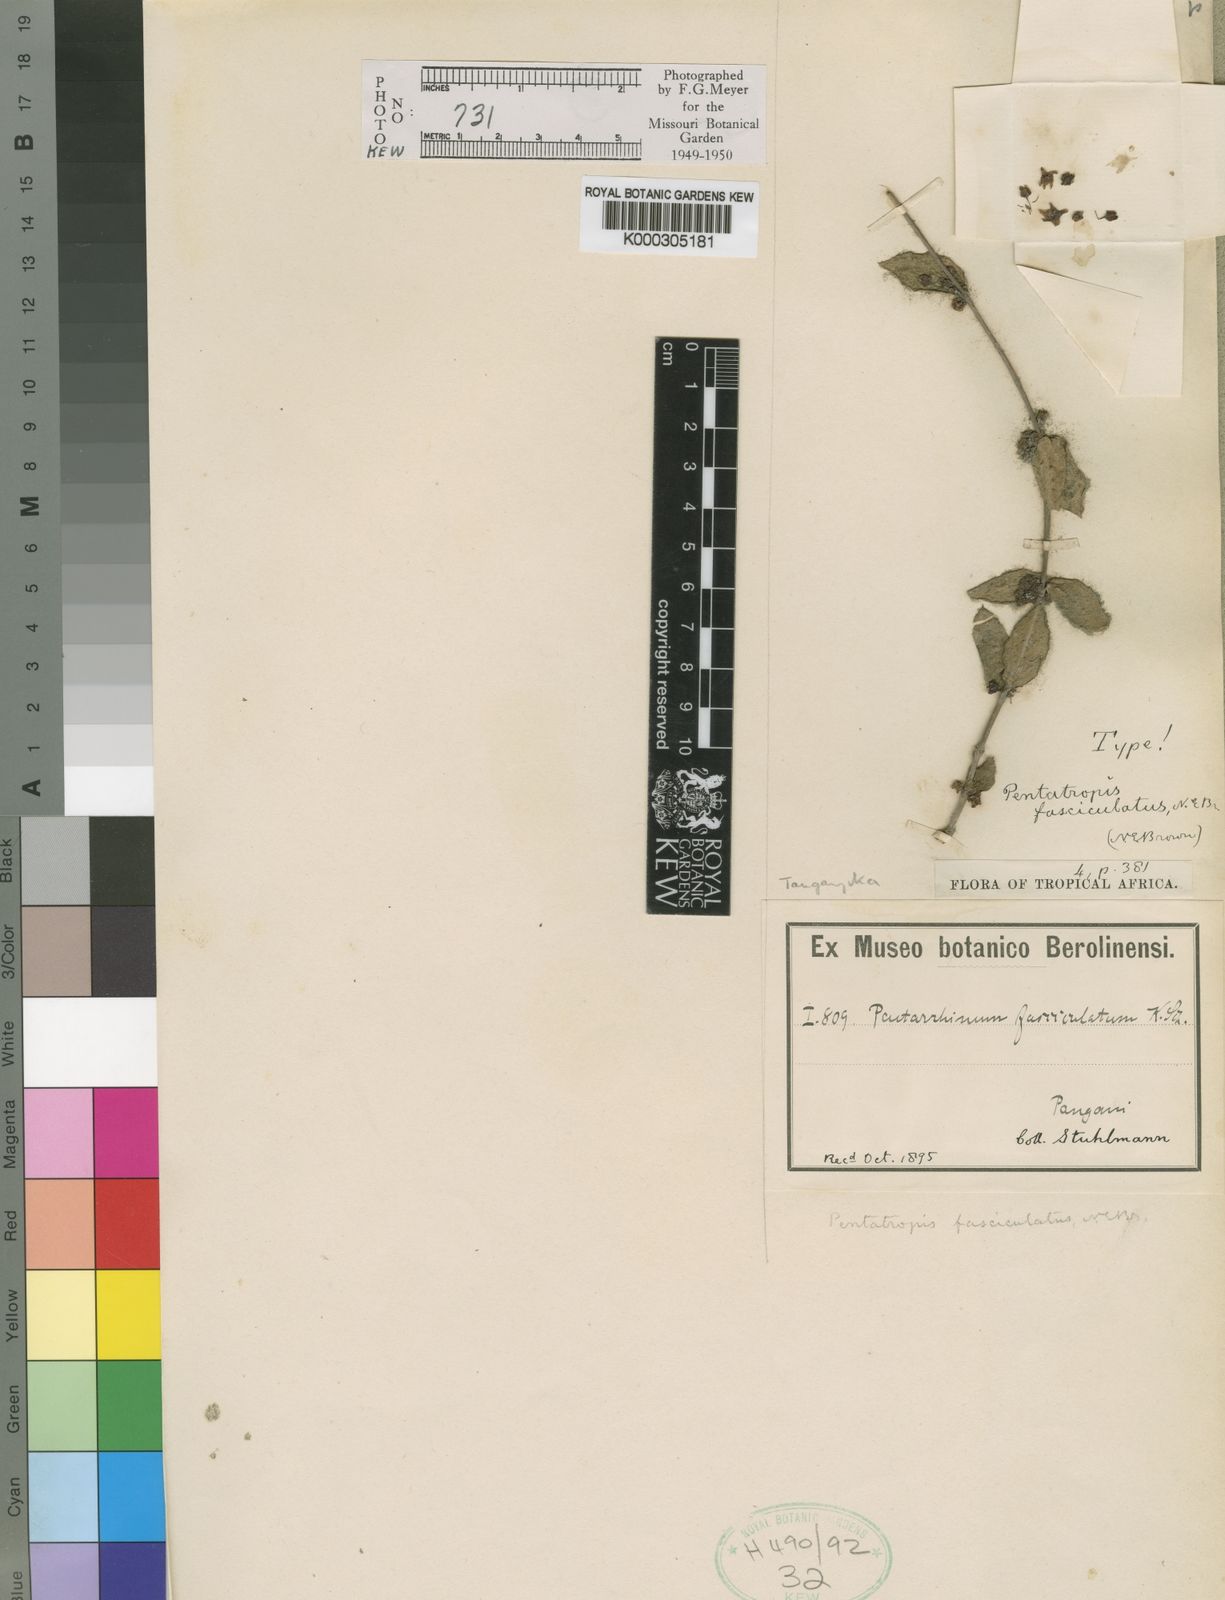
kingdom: Plantae
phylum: Tracheophyta
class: Magnoliopsida
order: Gentianales
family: Apocynaceae
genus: Pentatropis
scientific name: Pentatropis nivalis
